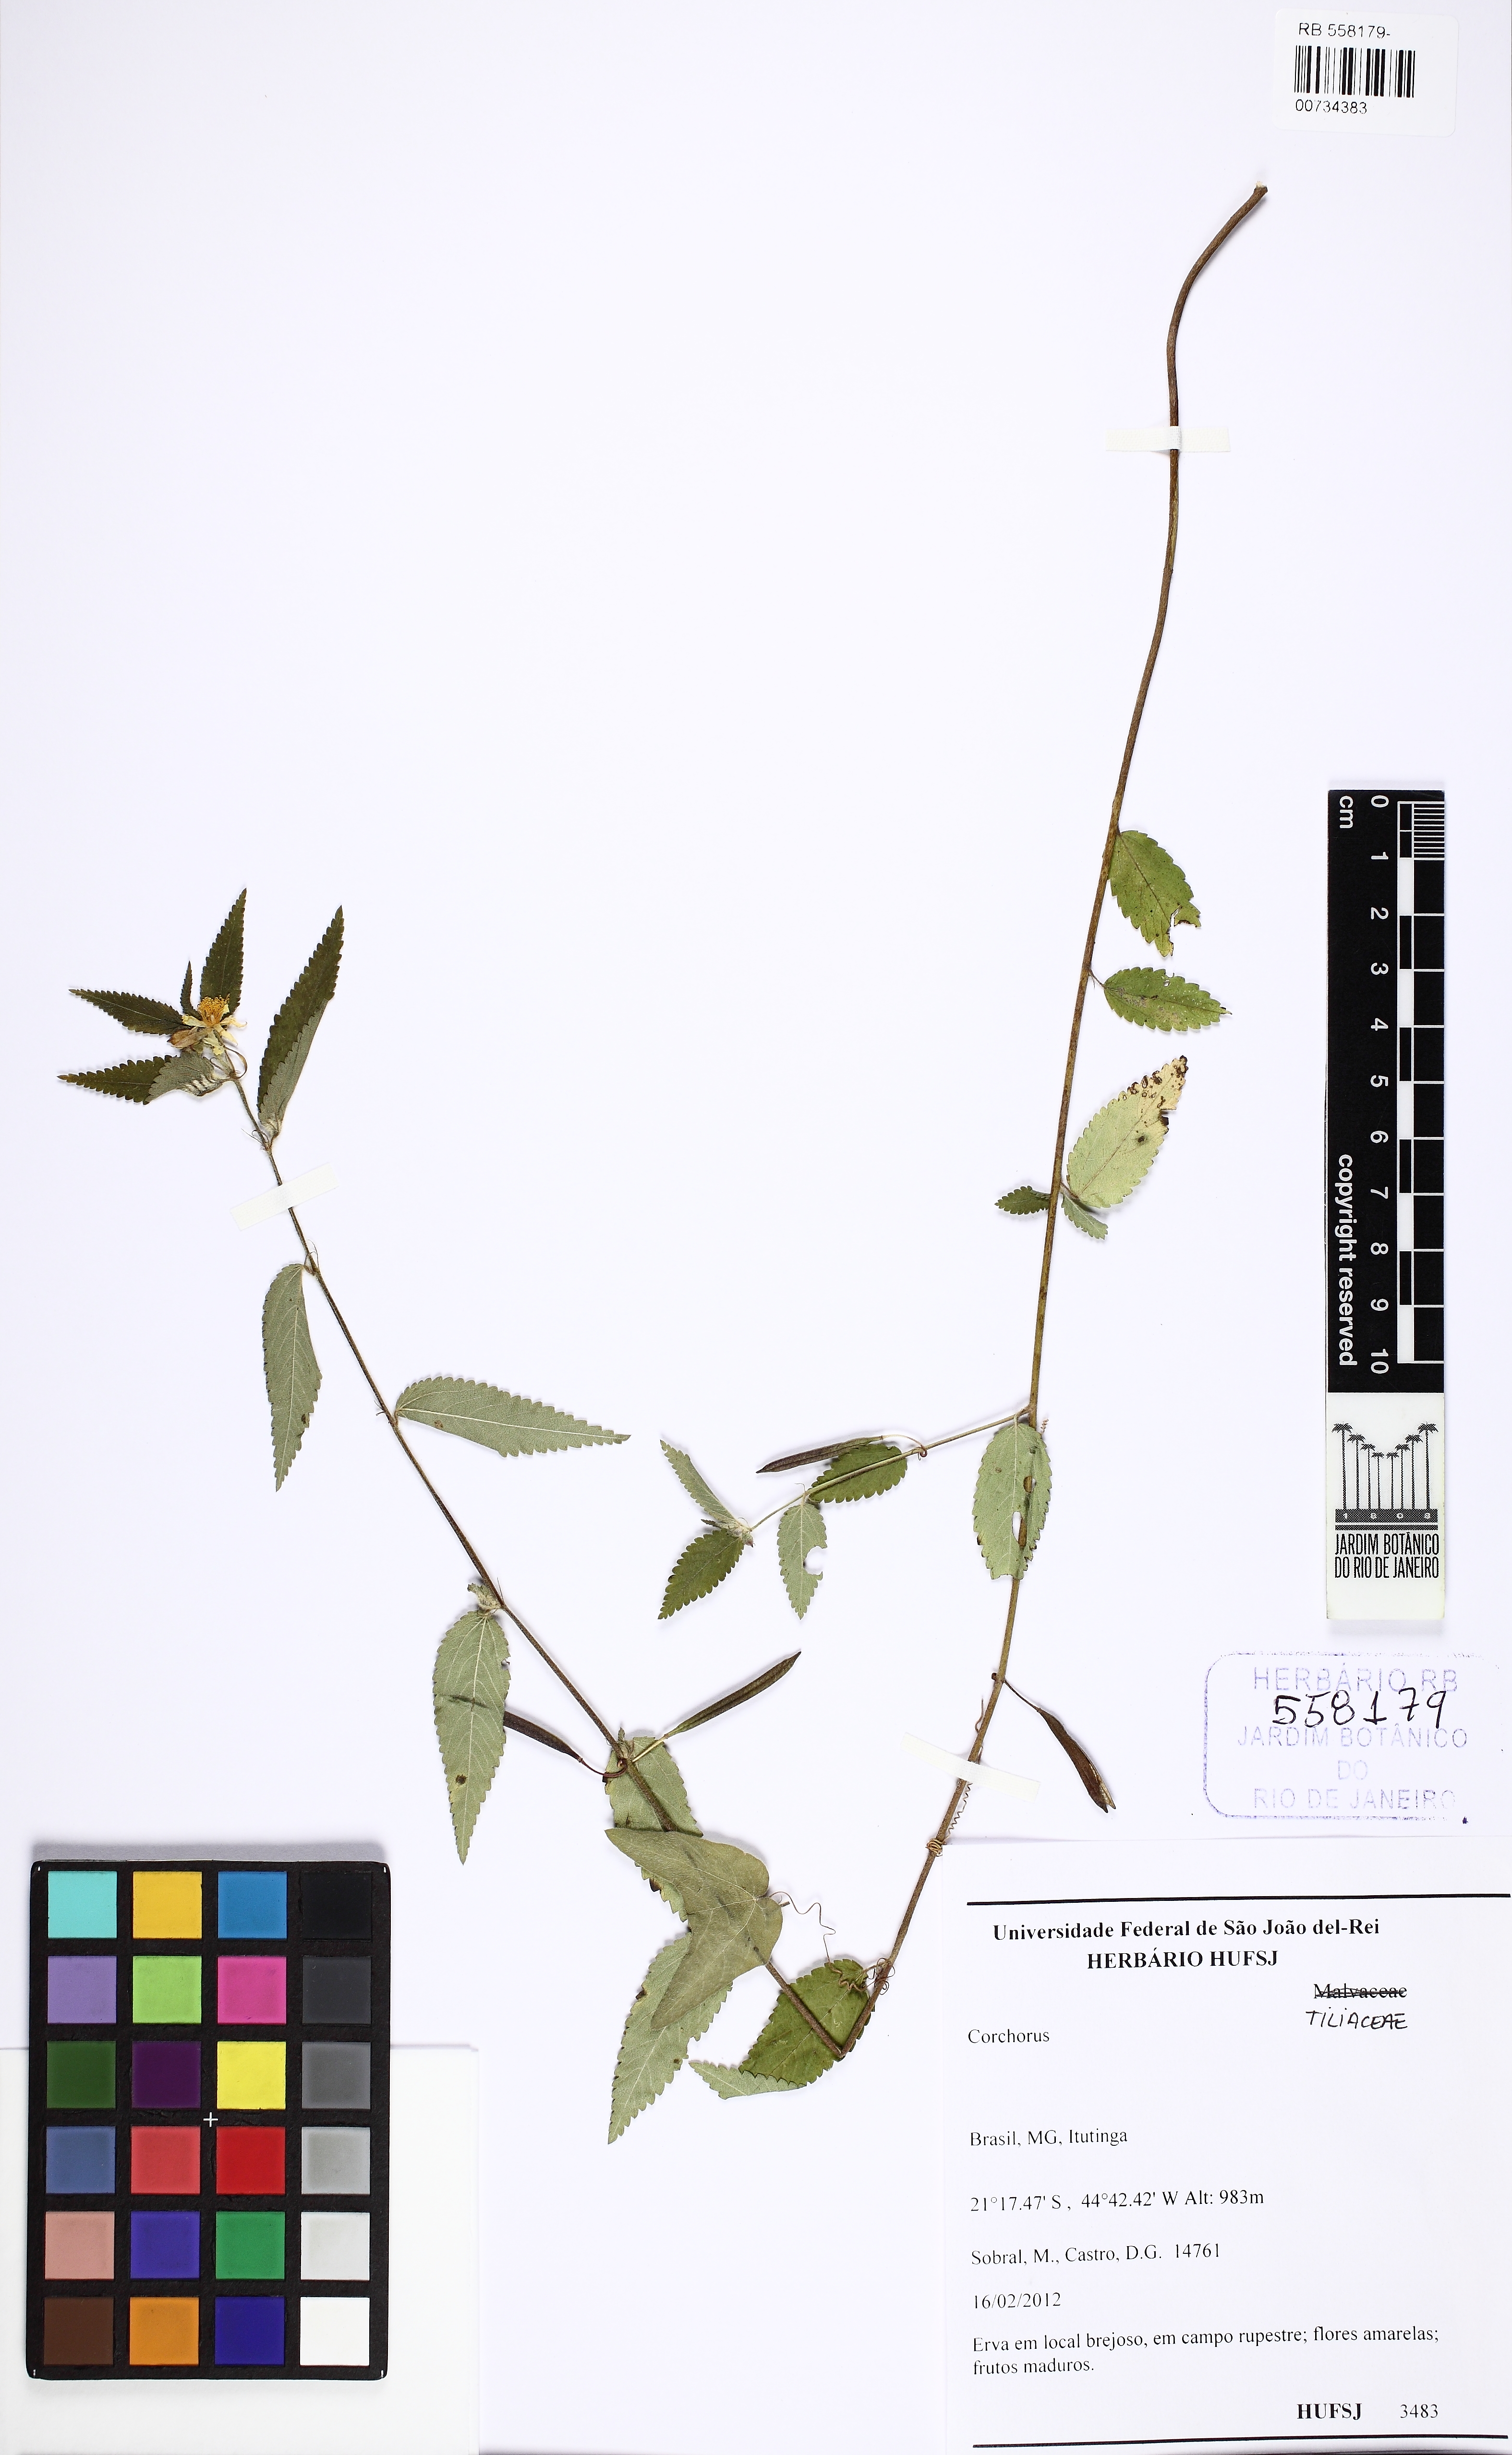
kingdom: Plantae
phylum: Tracheophyta
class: Magnoliopsida
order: Malvales
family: Malvaceae
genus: Corchorus
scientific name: Corchorus
